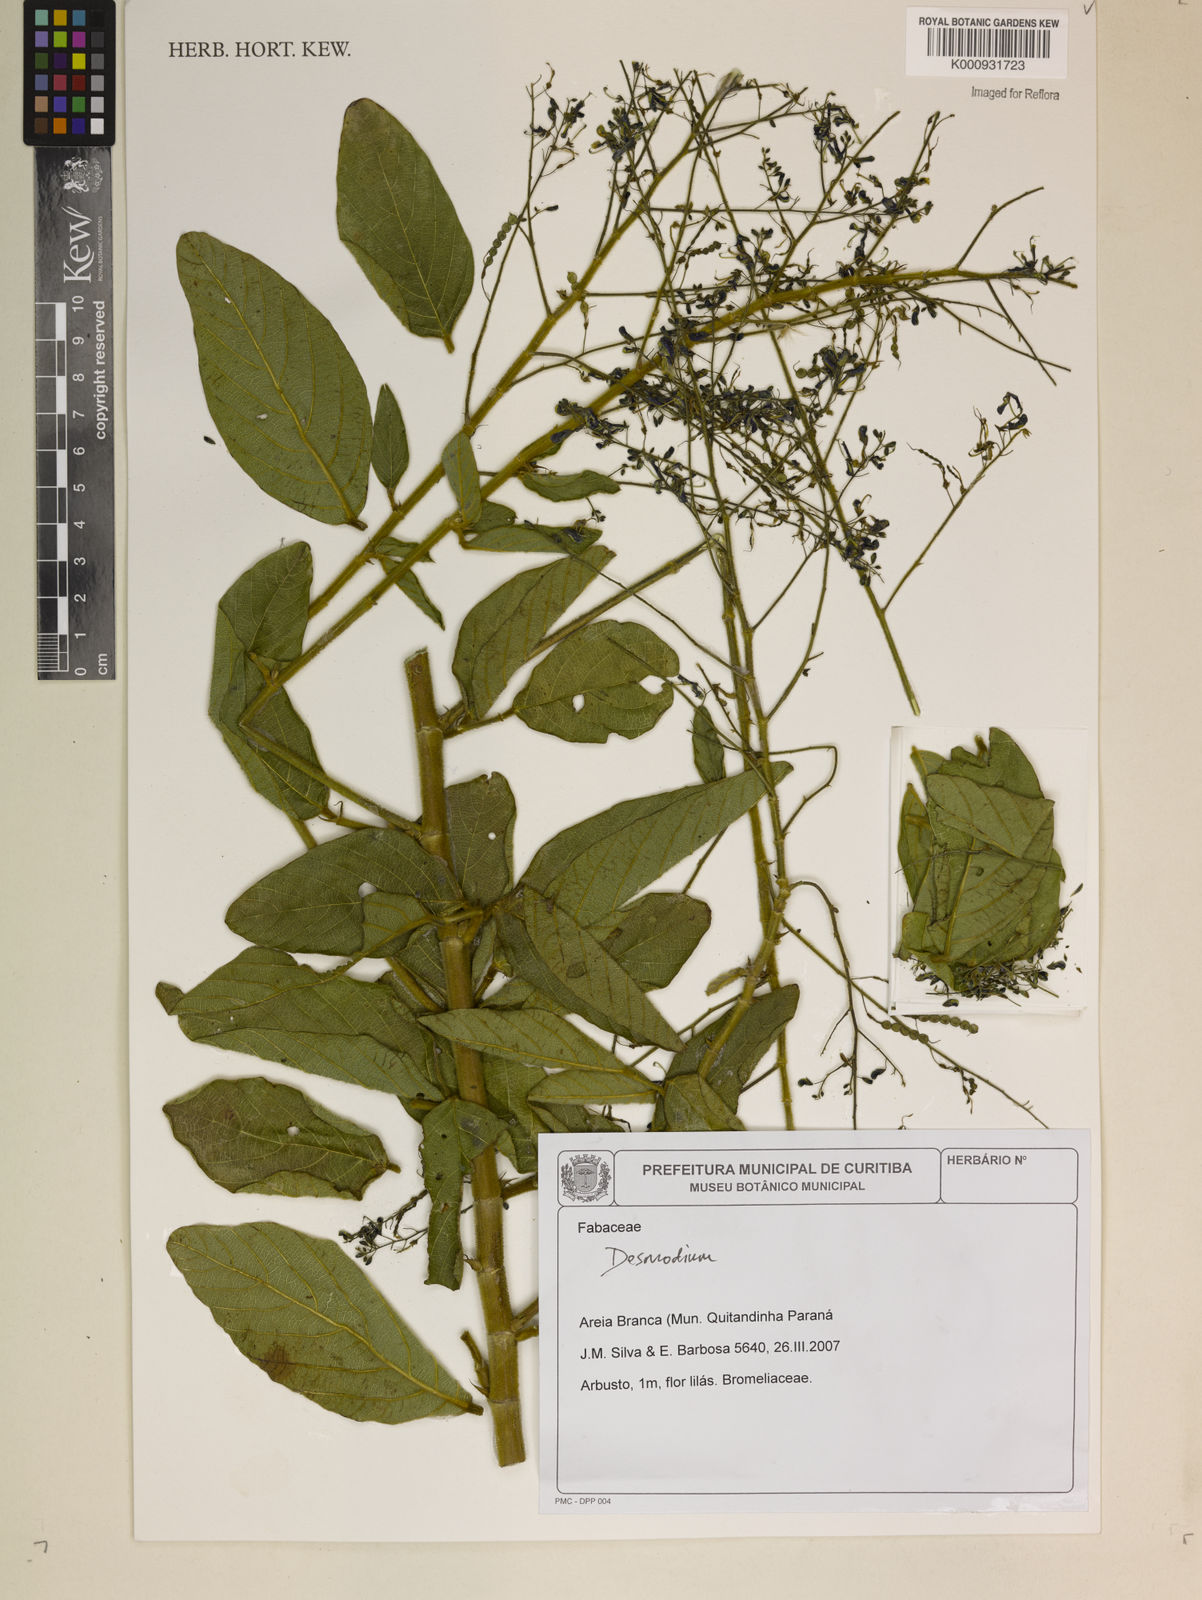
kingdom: Plantae
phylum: Tracheophyta
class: Magnoliopsida
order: Fabales
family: Fabaceae
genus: Desmodium
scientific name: Desmodium
